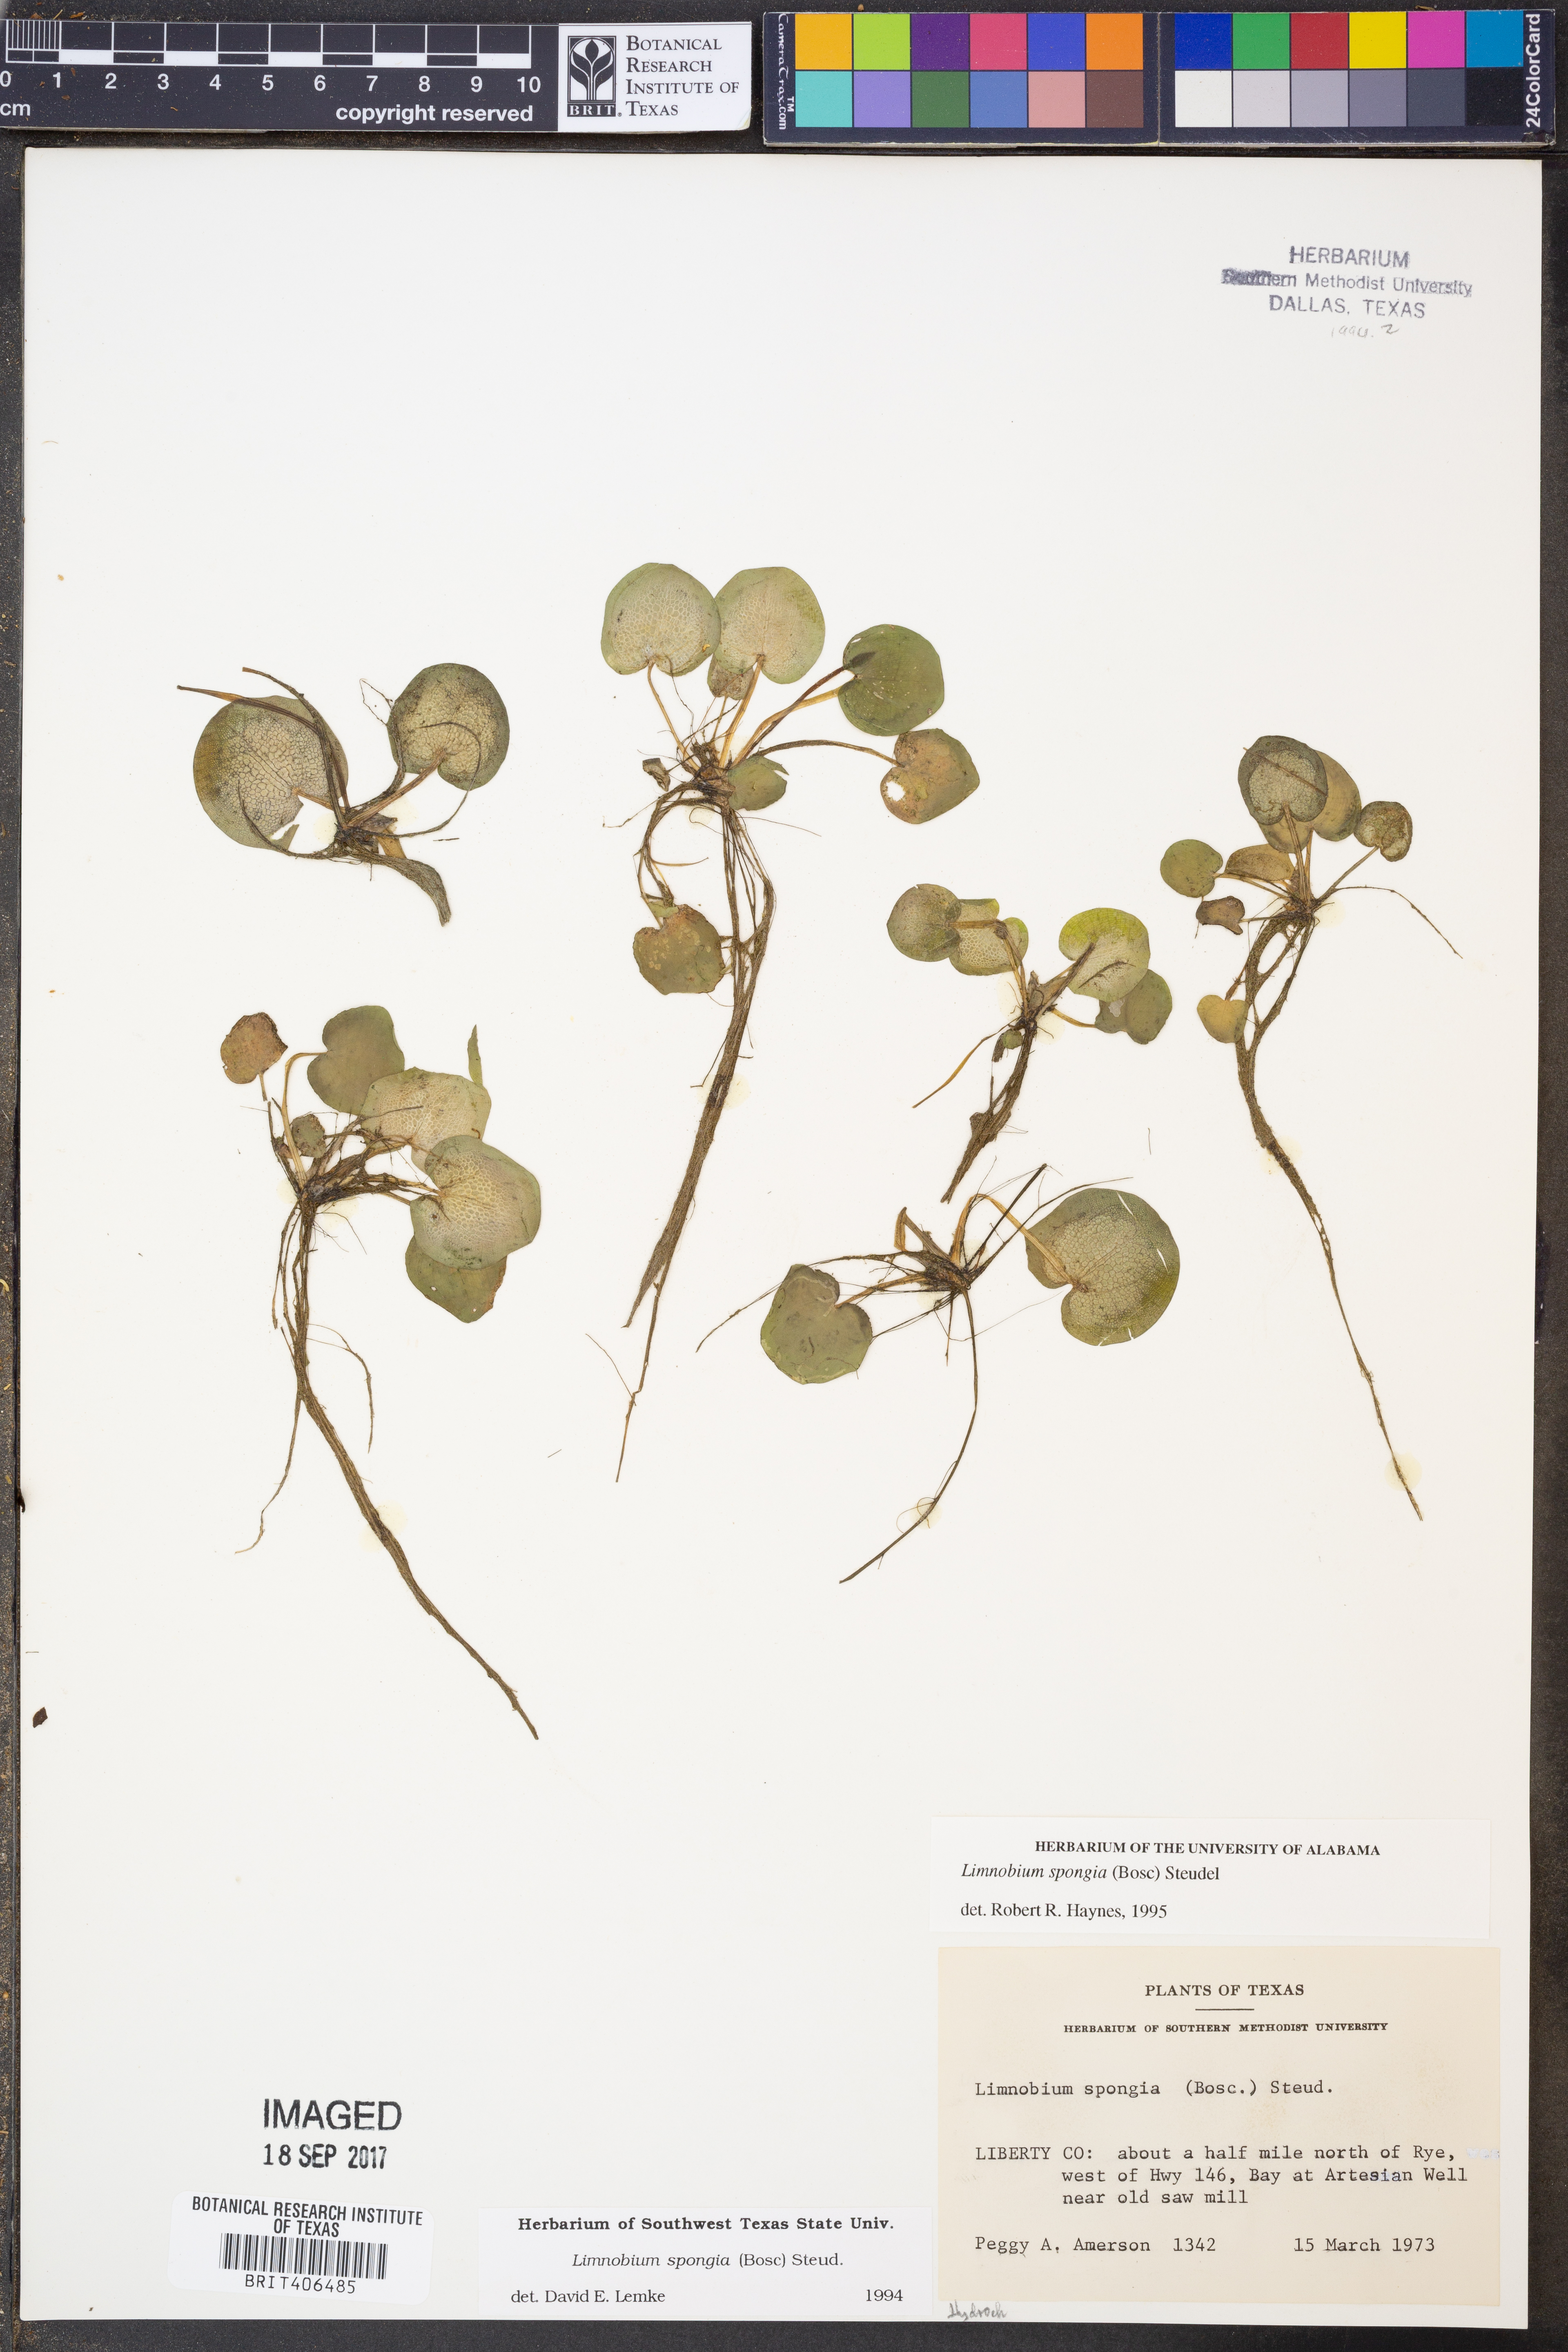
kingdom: Plantae
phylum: Tracheophyta
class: Liliopsida
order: Alismatales
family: Hydrocharitaceae
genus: Hydrocharis
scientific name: Hydrocharis spongia
